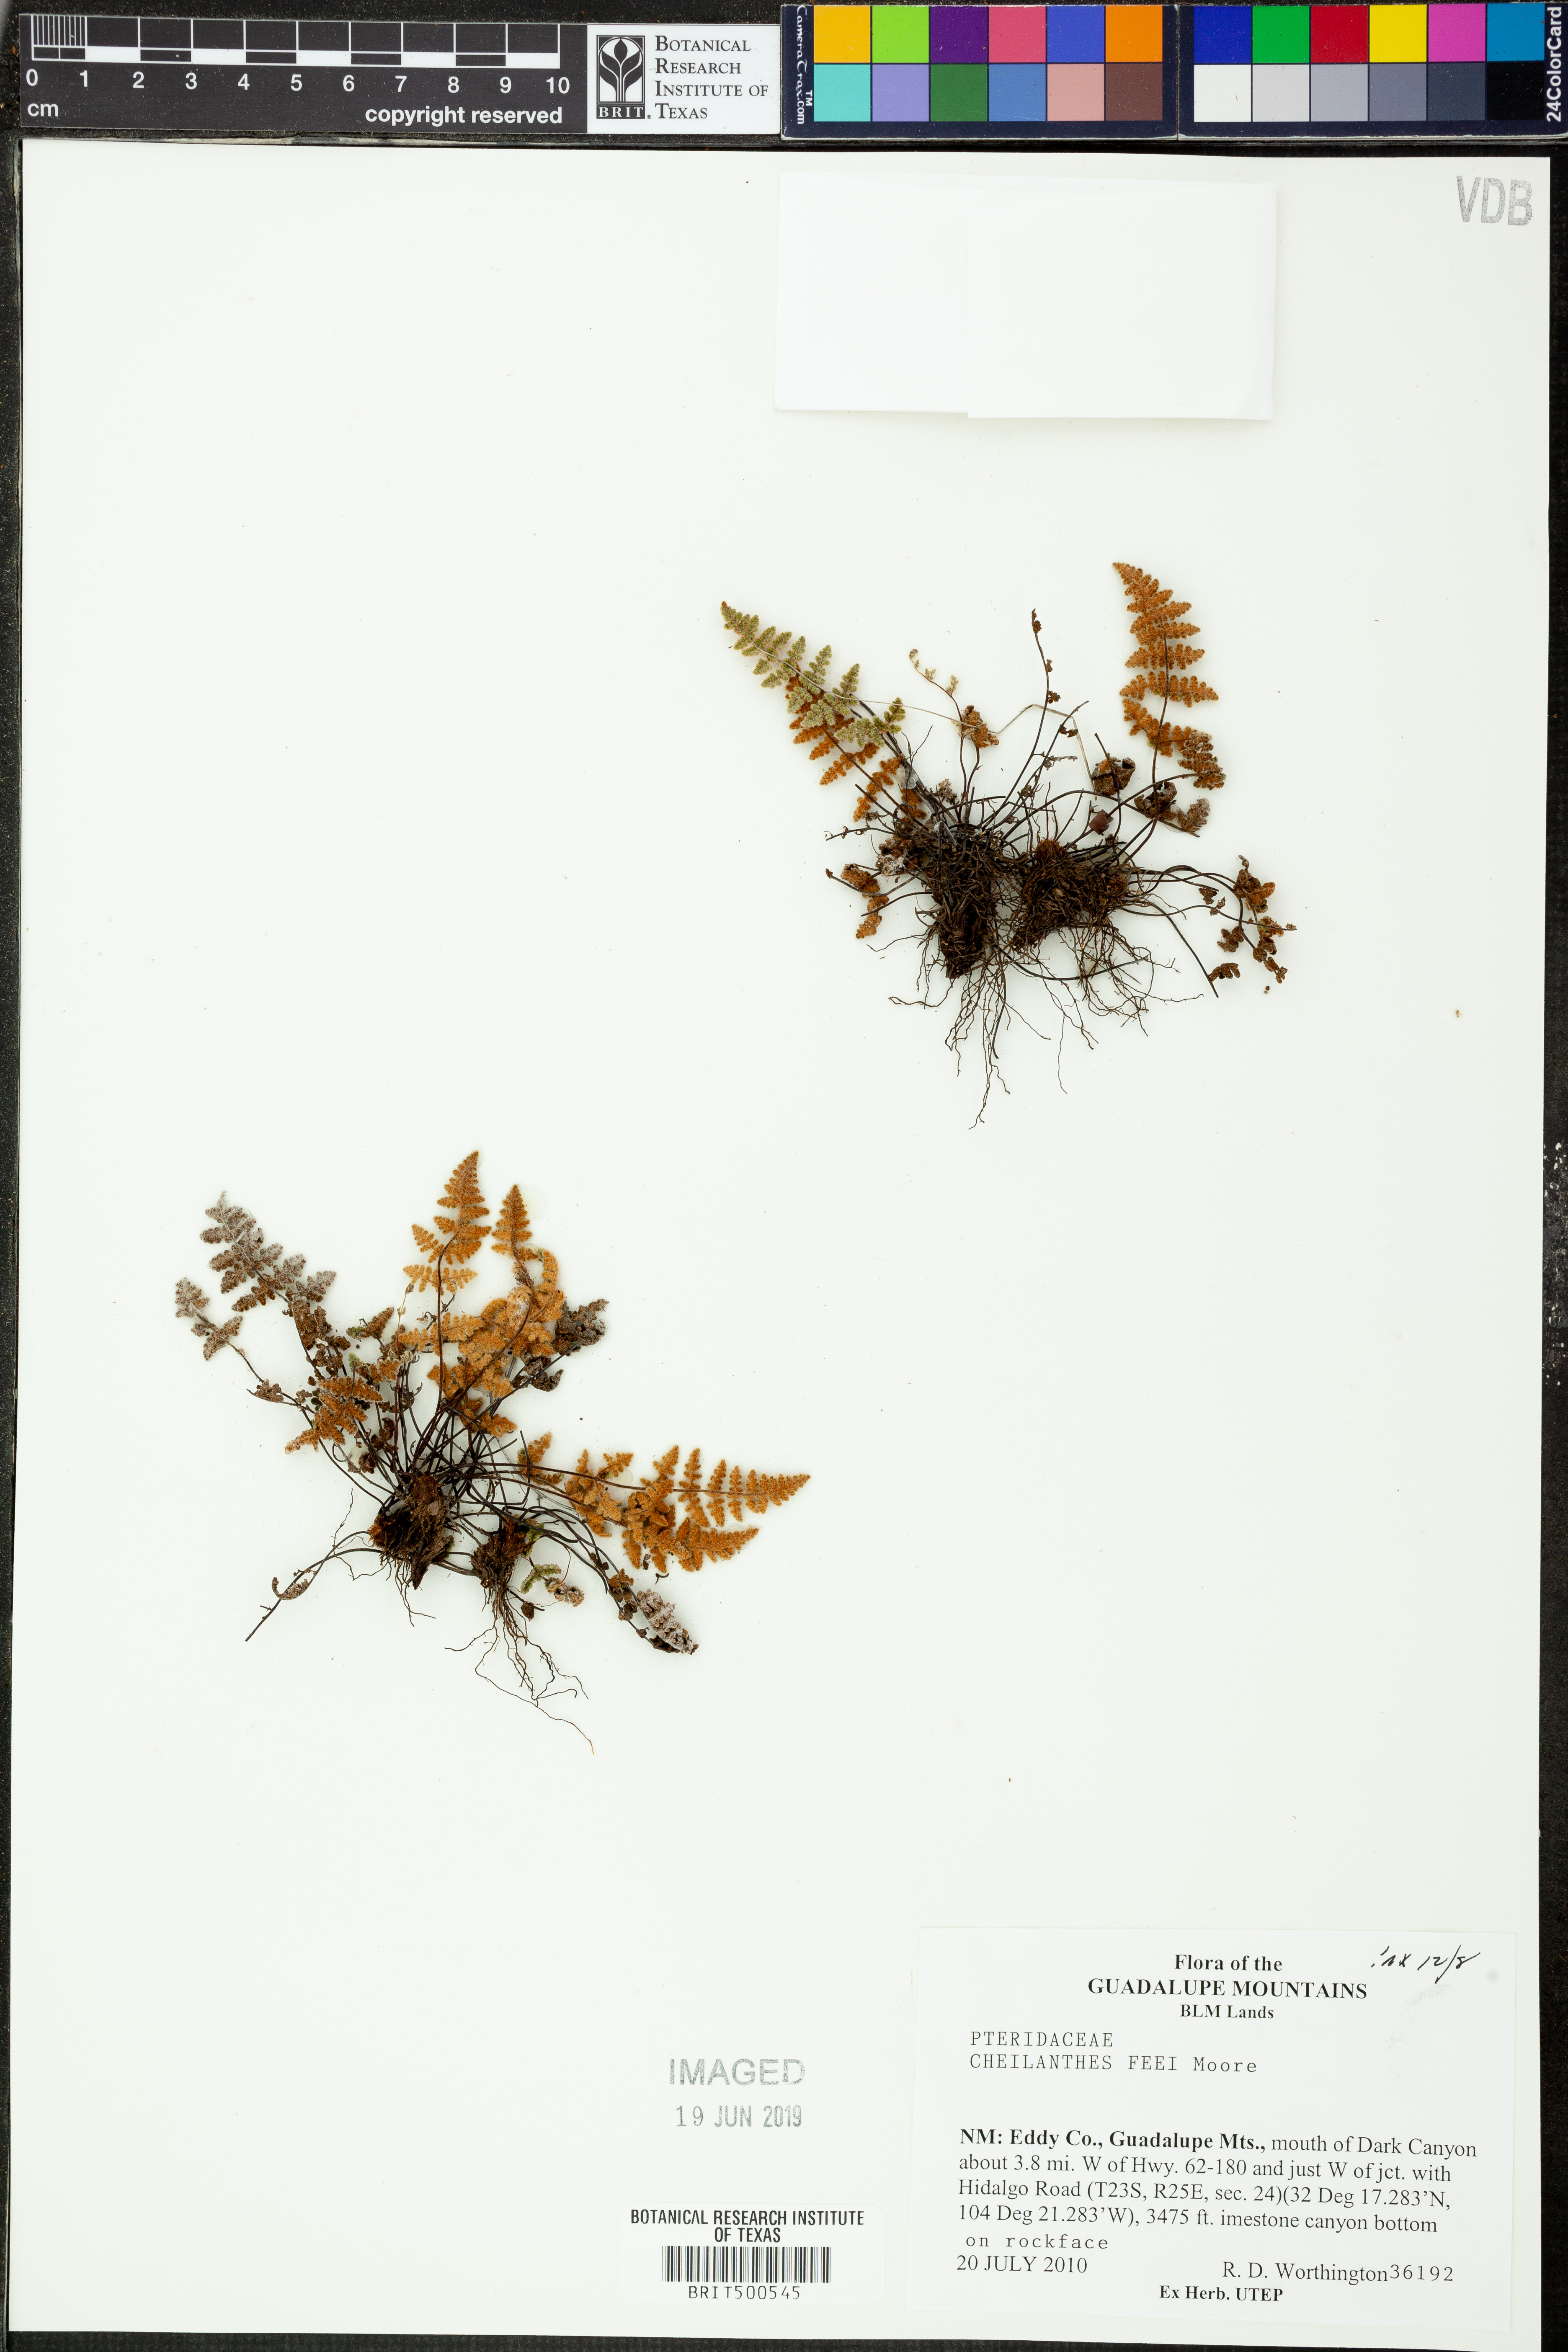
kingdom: Plantae
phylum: Tracheophyta
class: Polypodiopsida
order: Polypodiales
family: Pteridaceae
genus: Myriopteris
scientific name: Myriopteris gracilis
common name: Fee's lip fern
